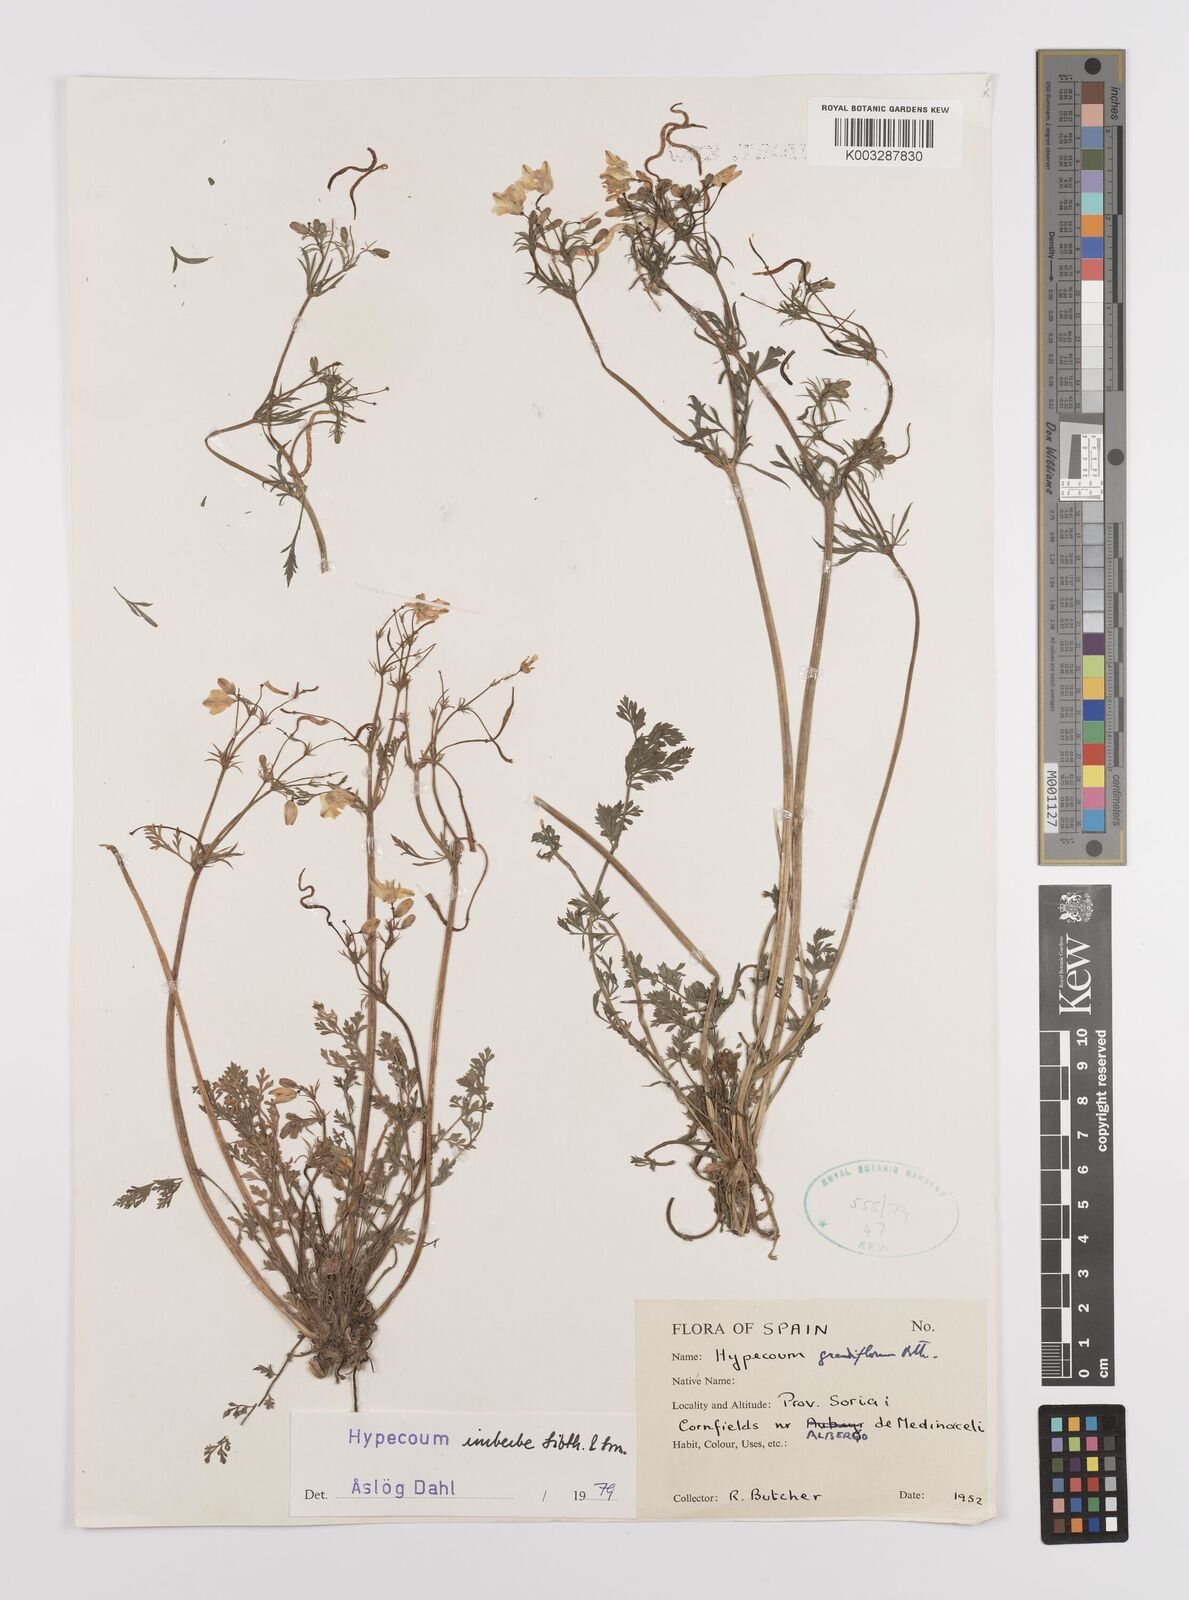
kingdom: Plantae
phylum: Tracheophyta
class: Magnoliopsida
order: Ranunculales
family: Papaveraceae
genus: Hypecoum
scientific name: Hypecoum imberbe
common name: Sicklefruit hypecoum
